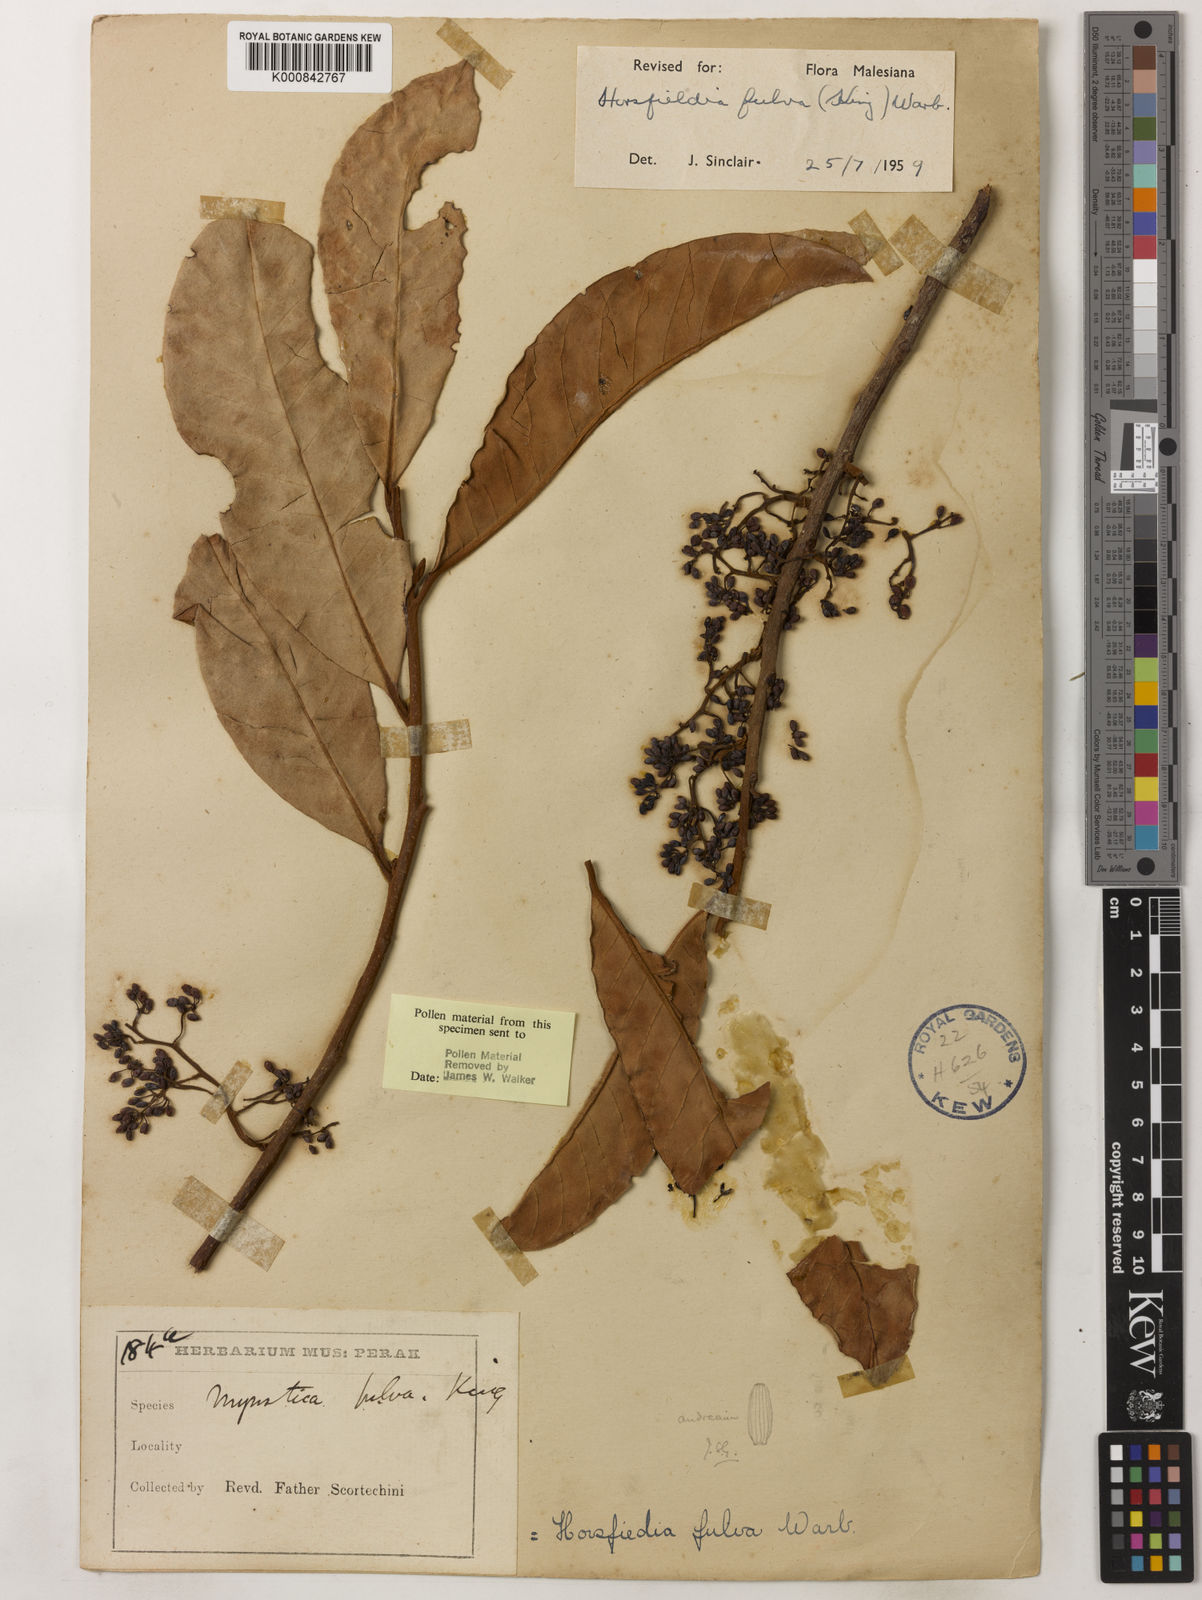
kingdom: Plantae
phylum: Tracheophyta
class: Magnoliopsida
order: Magnoliales
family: Myristicaceae
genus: Horsfieldia
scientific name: Horsfieldia fulva
